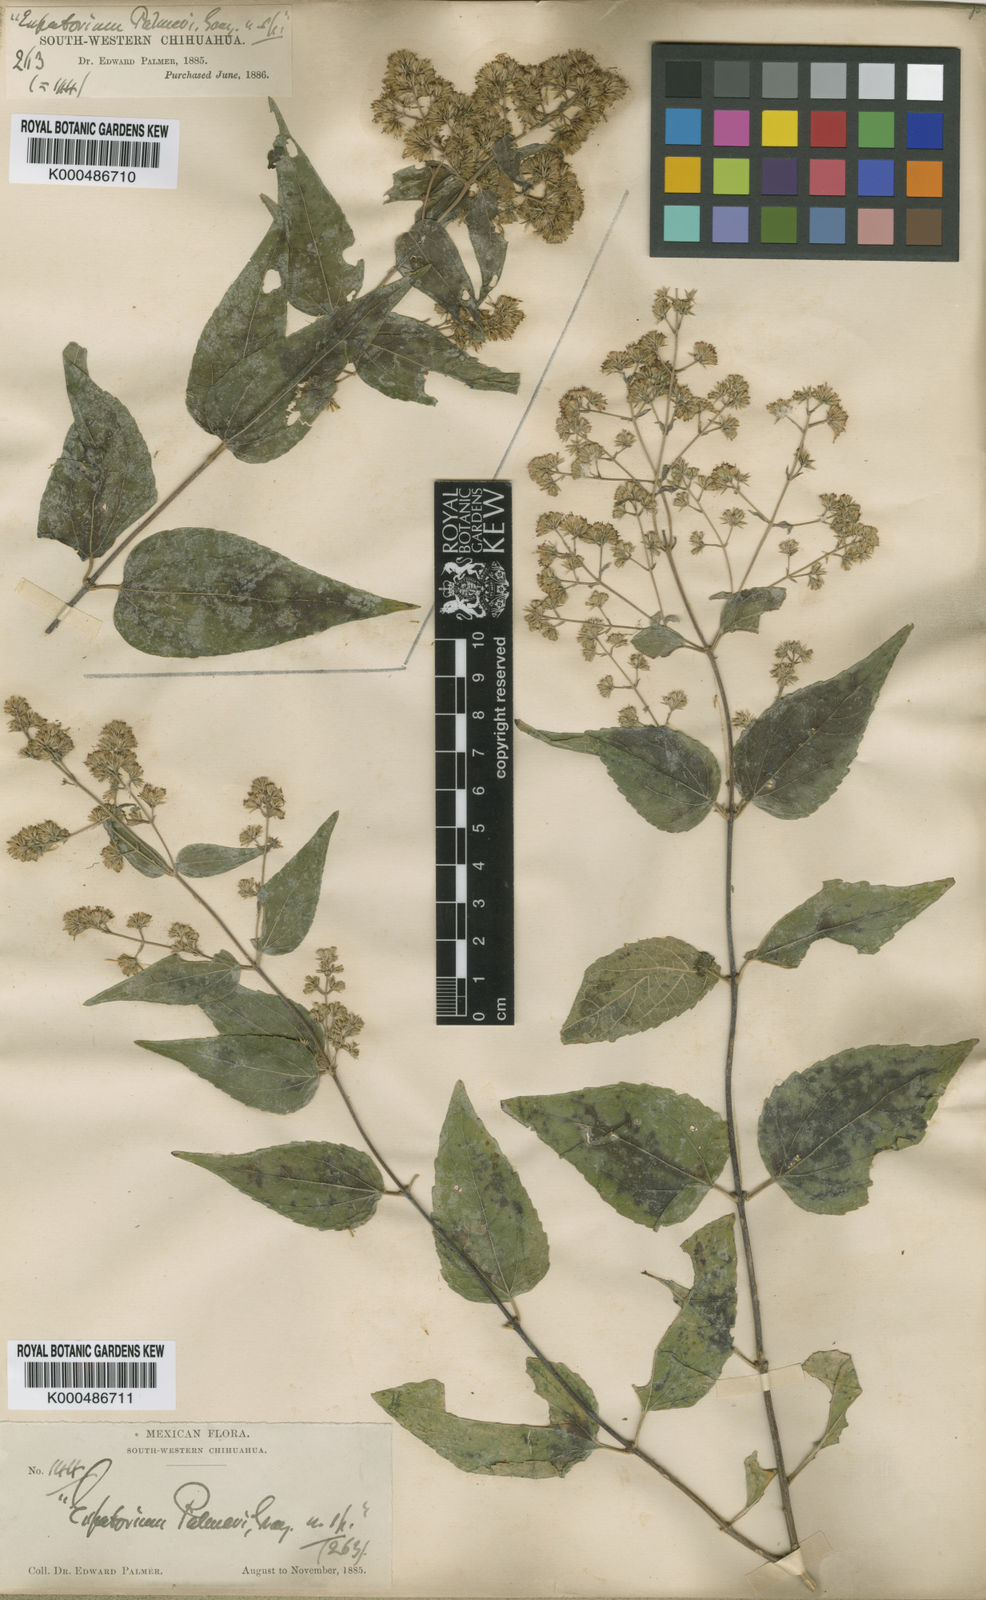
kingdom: Plantae
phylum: Tracheophyta
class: Magnoliopsida
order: Asterales
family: Asteraceae
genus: Koanophyllon
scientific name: Koanophyllon palmeri
